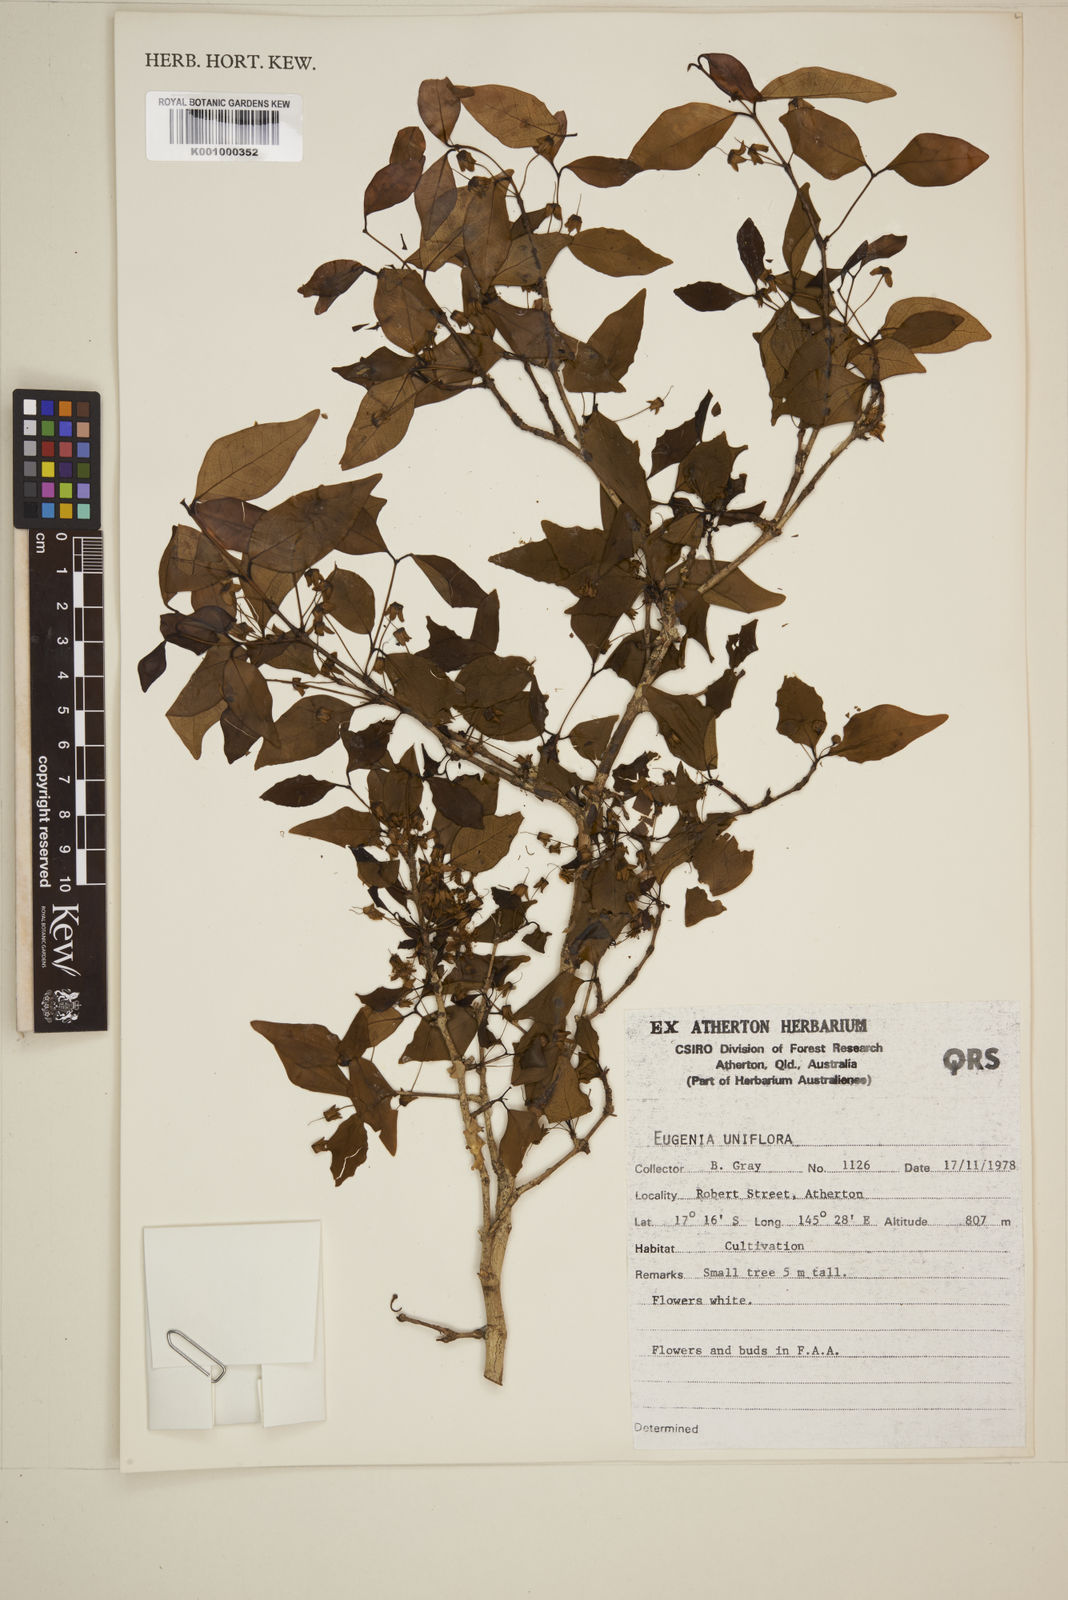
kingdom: Plantae
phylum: Tracheophyta
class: Magnoliopsida
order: Myrtales
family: Myrtaceae
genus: Eugenia
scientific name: Eugenia uniflora
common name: Surinam cherry
